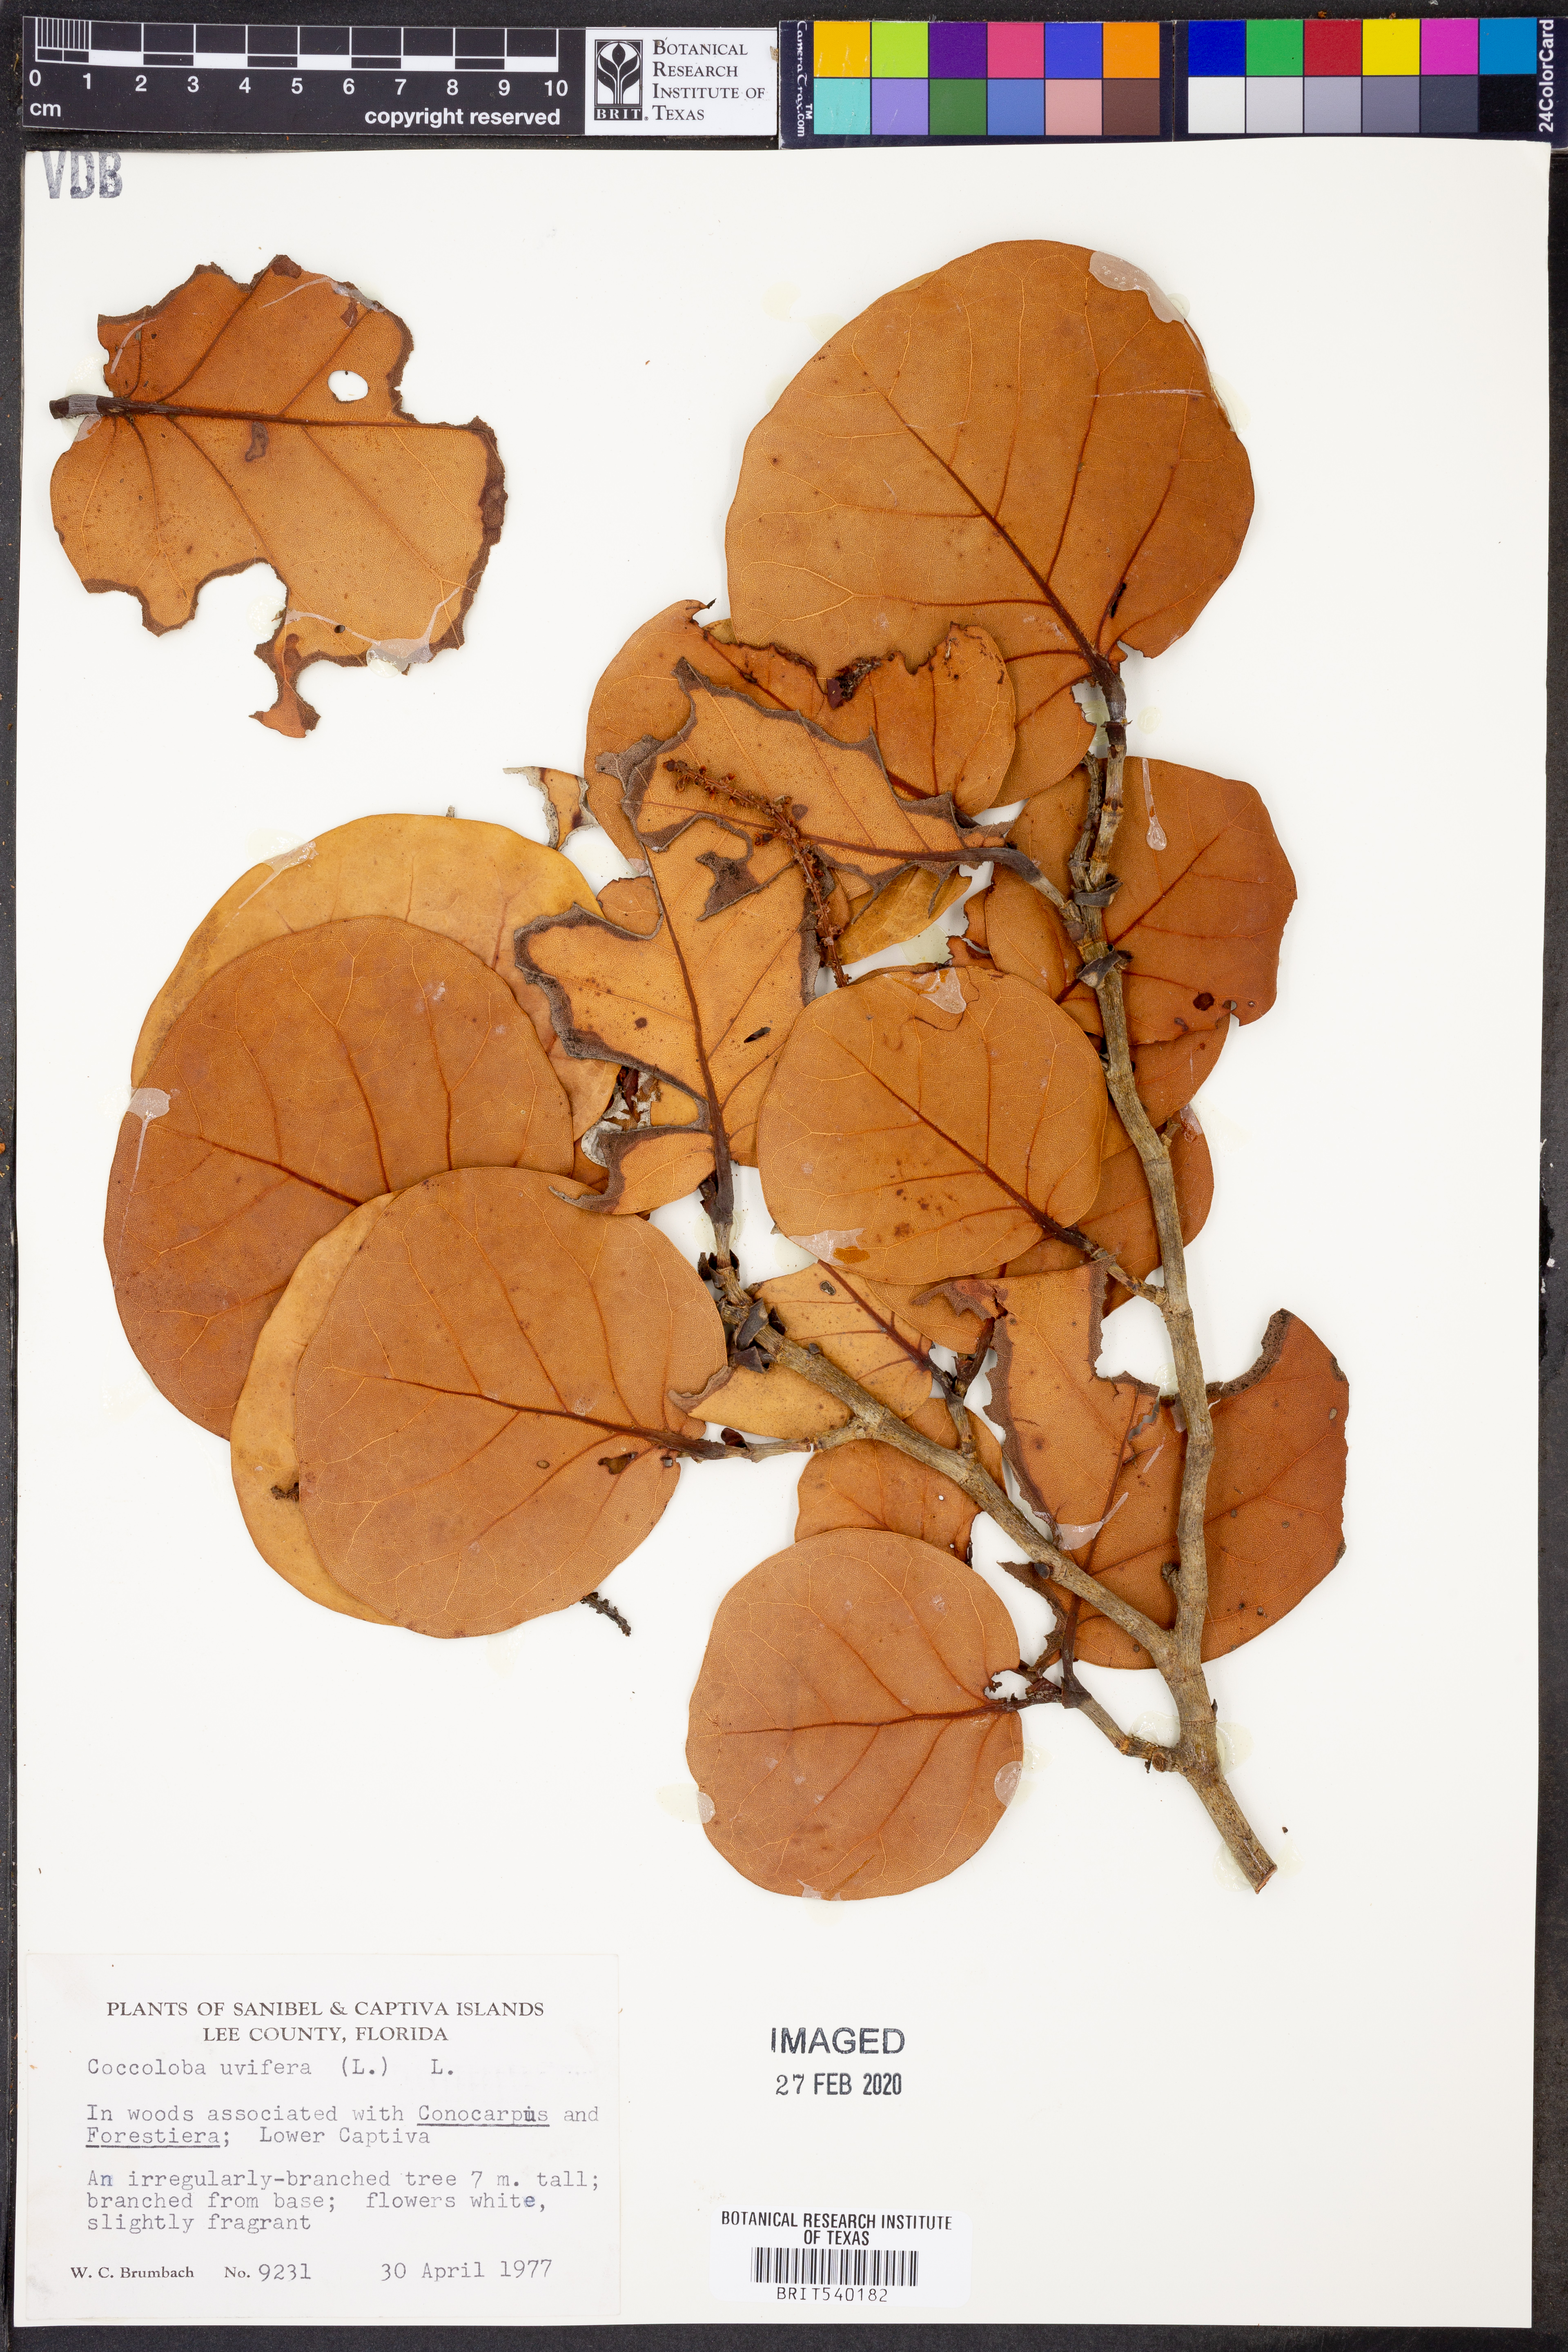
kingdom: Plantae
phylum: Tracheophyta
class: Magnoliopsida
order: Caryophyllales
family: Polygonaceae
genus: Coccoloba
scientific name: Coccoloba uvifera
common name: Seagrape
